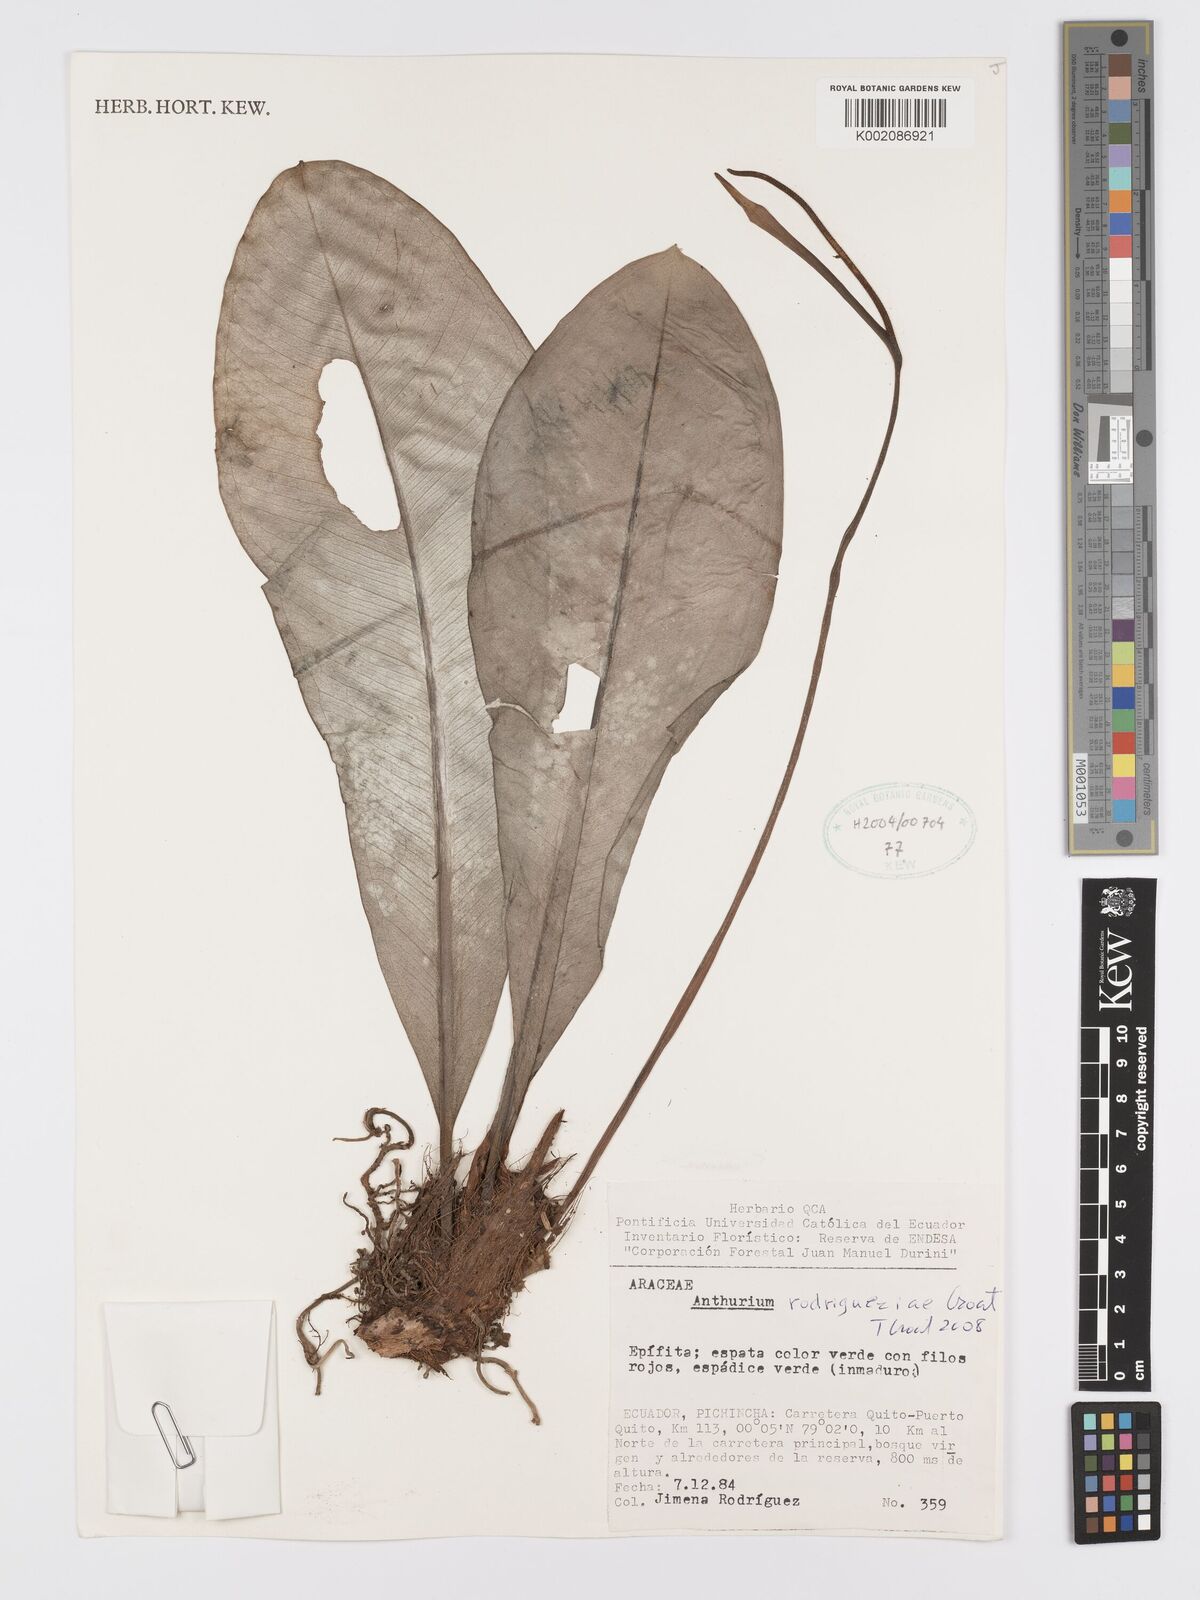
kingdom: Plantae
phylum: Tracheophyta
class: Liliopsida
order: Alismatales
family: Araceae
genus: Anthurium
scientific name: Anthurium rodrigueziae
